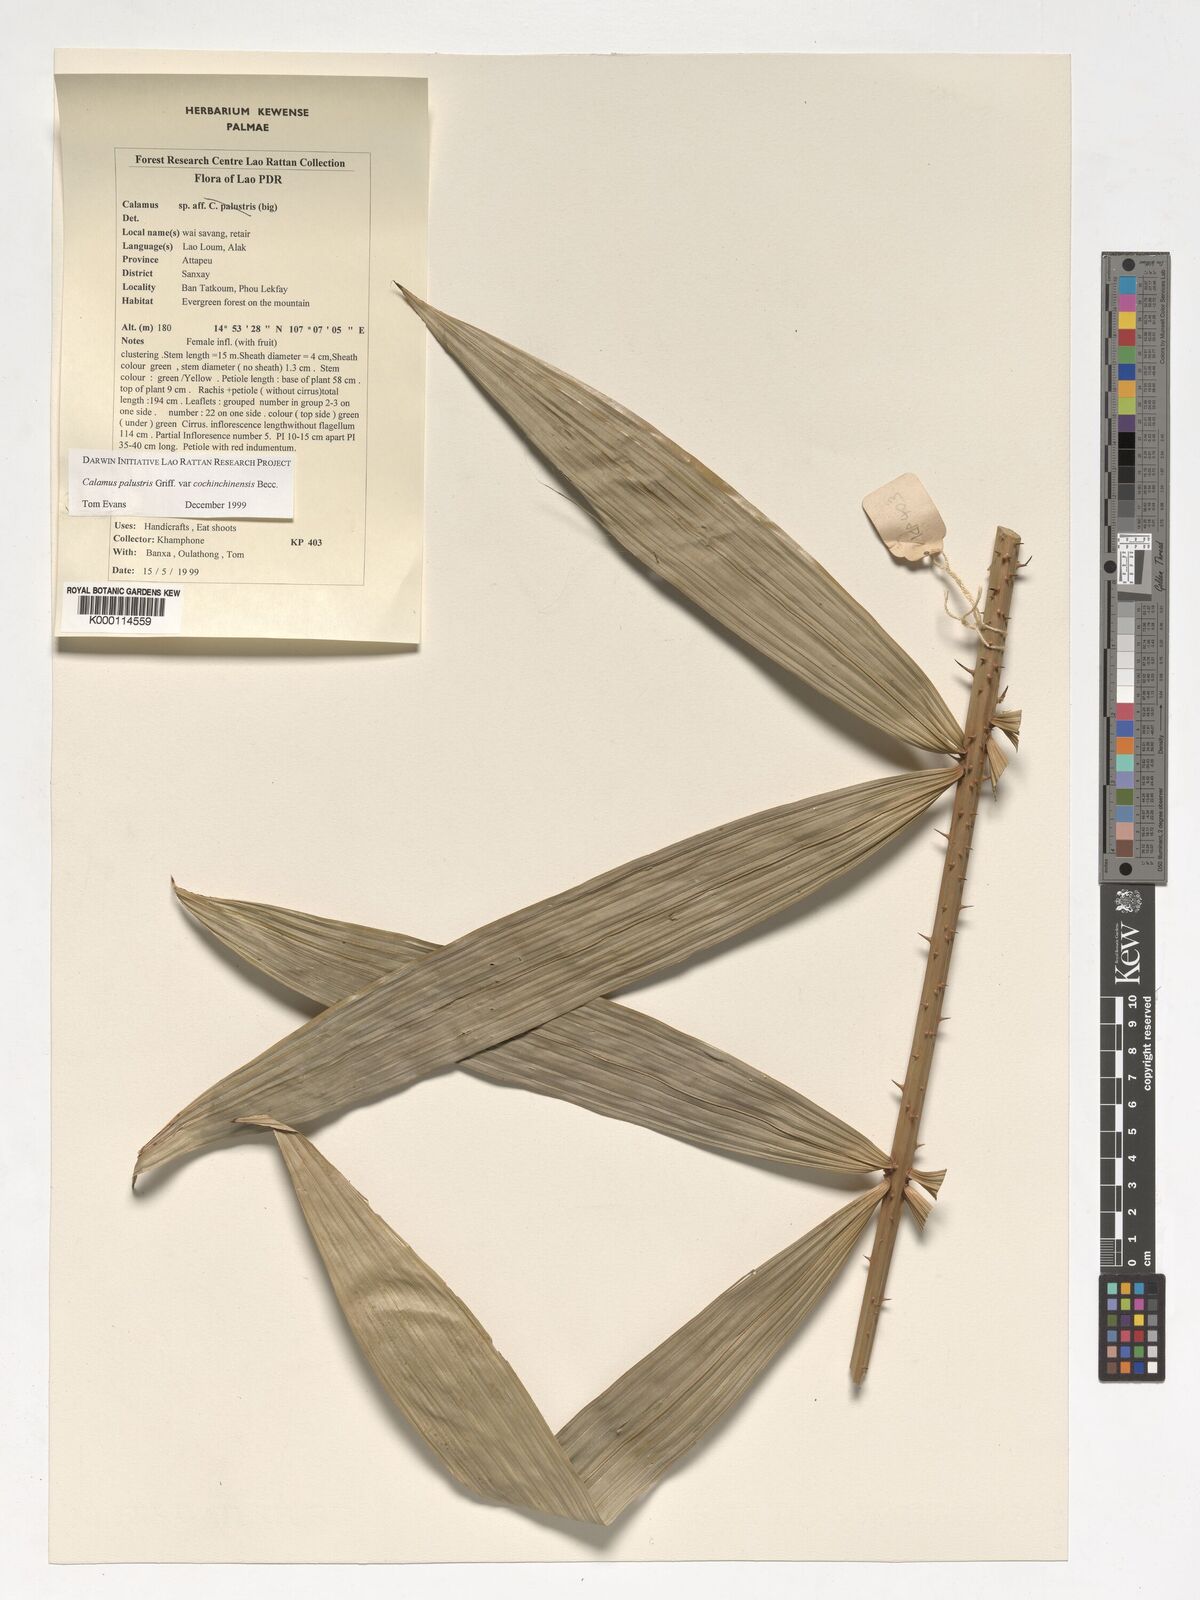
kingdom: Plantae
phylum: Tracheophyta
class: Liliopsida
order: Arecales
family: Arecaceae
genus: Calamus
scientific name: Calamus inermis
